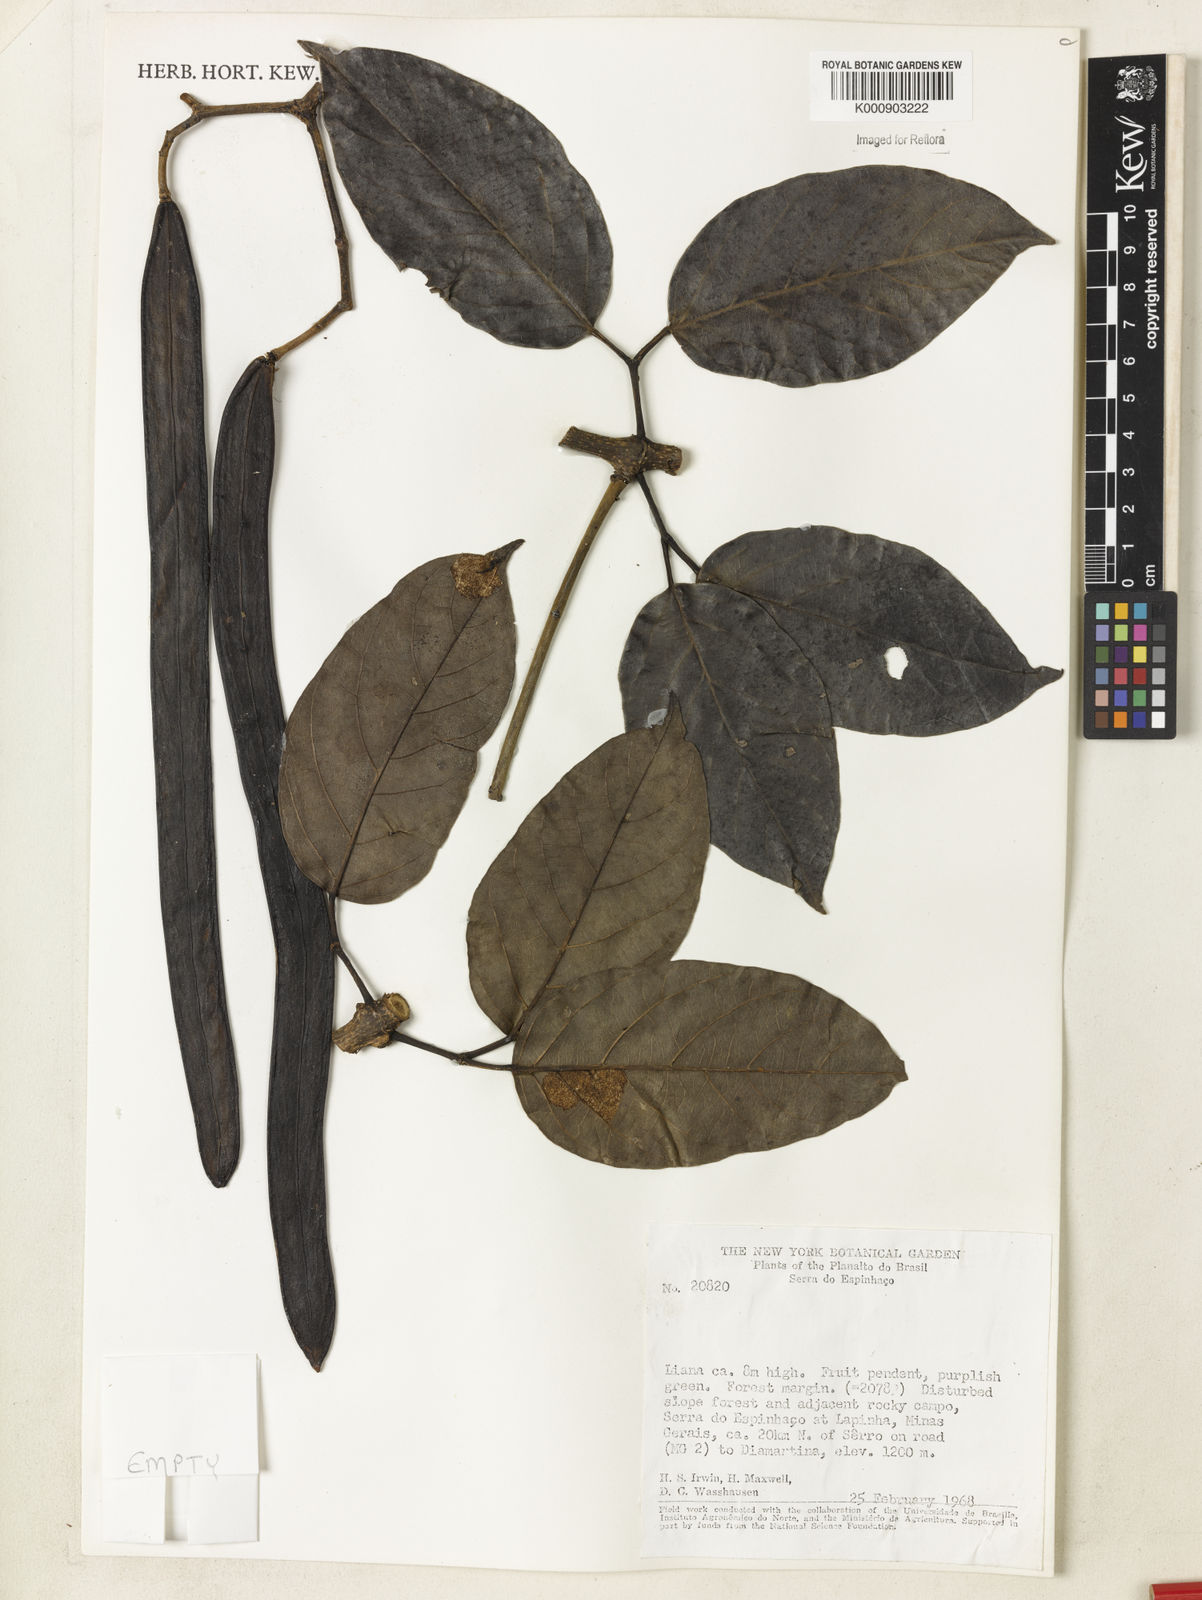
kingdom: Plantae
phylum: Tracheophyta
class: Magnoliopsida
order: Lamiales
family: Bignoniaceae
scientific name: Bignoniaceae
